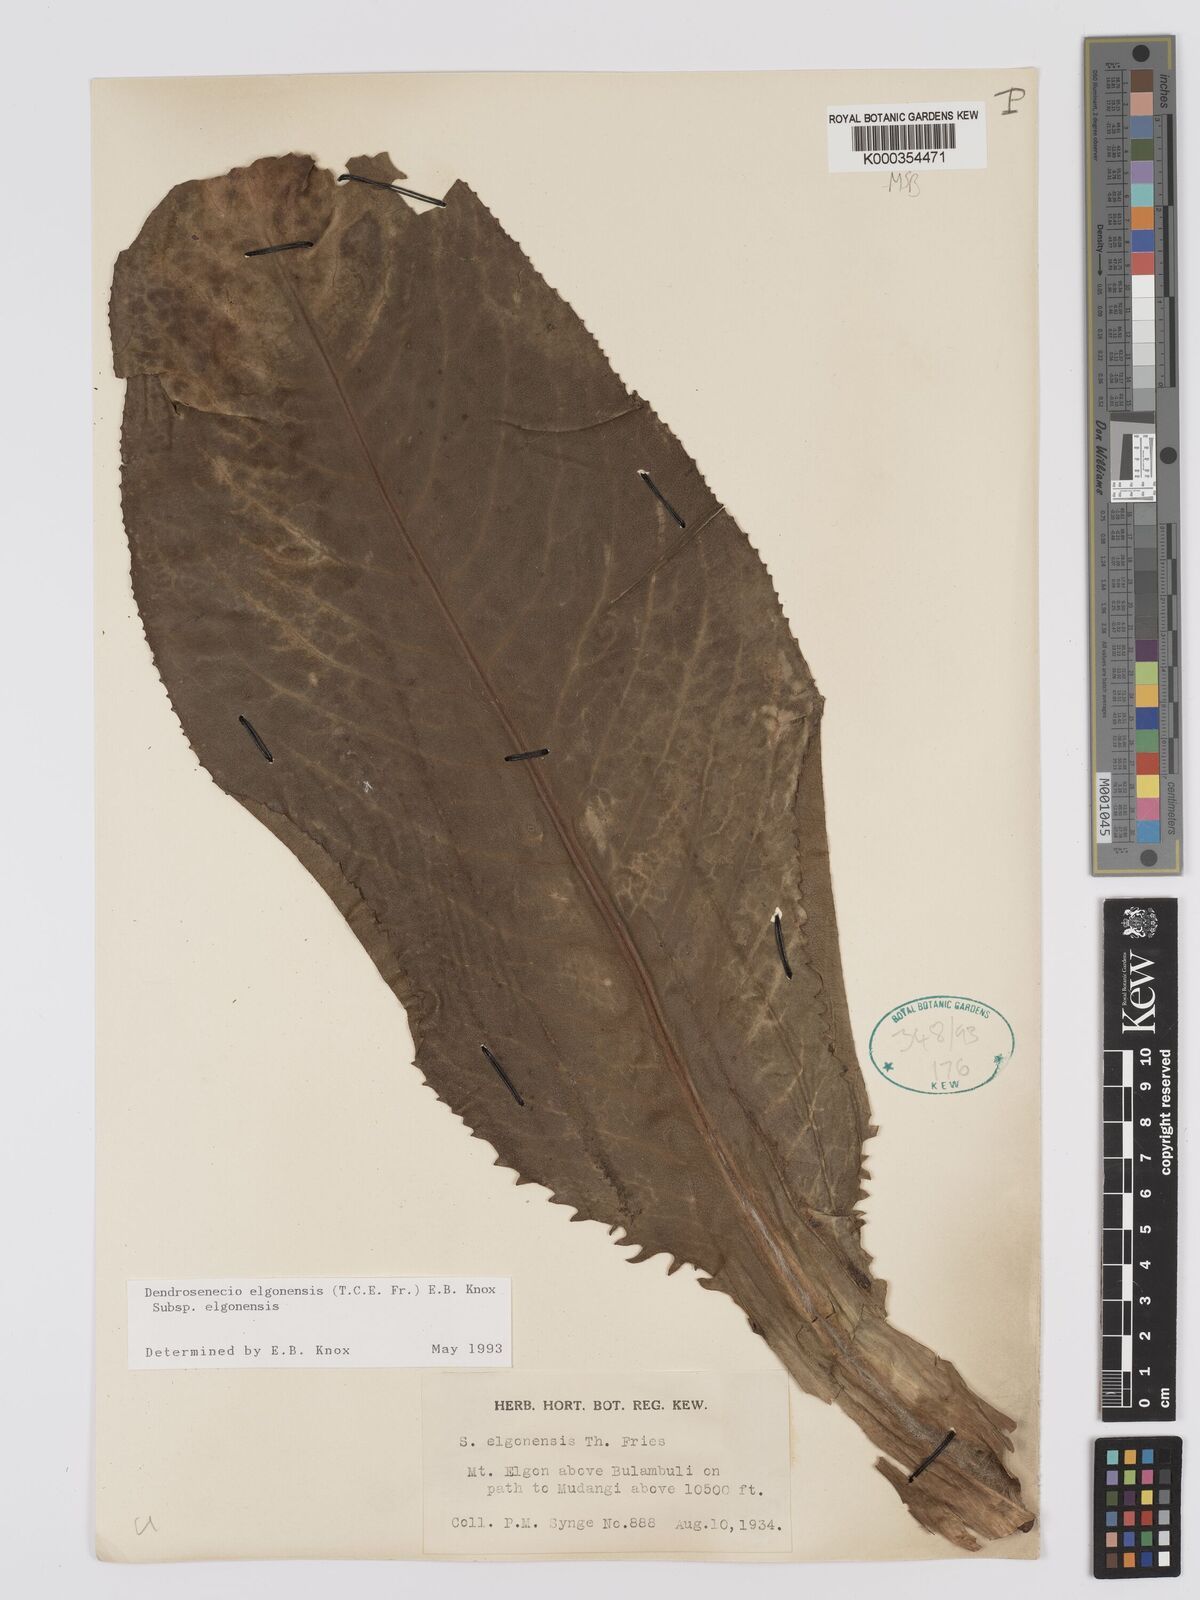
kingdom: Plantae
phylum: Tracheophyta
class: Magnoliopsida
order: Asterales
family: Asteraceae
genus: Dendrosenecio
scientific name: Dendrosenecio elgonensis
